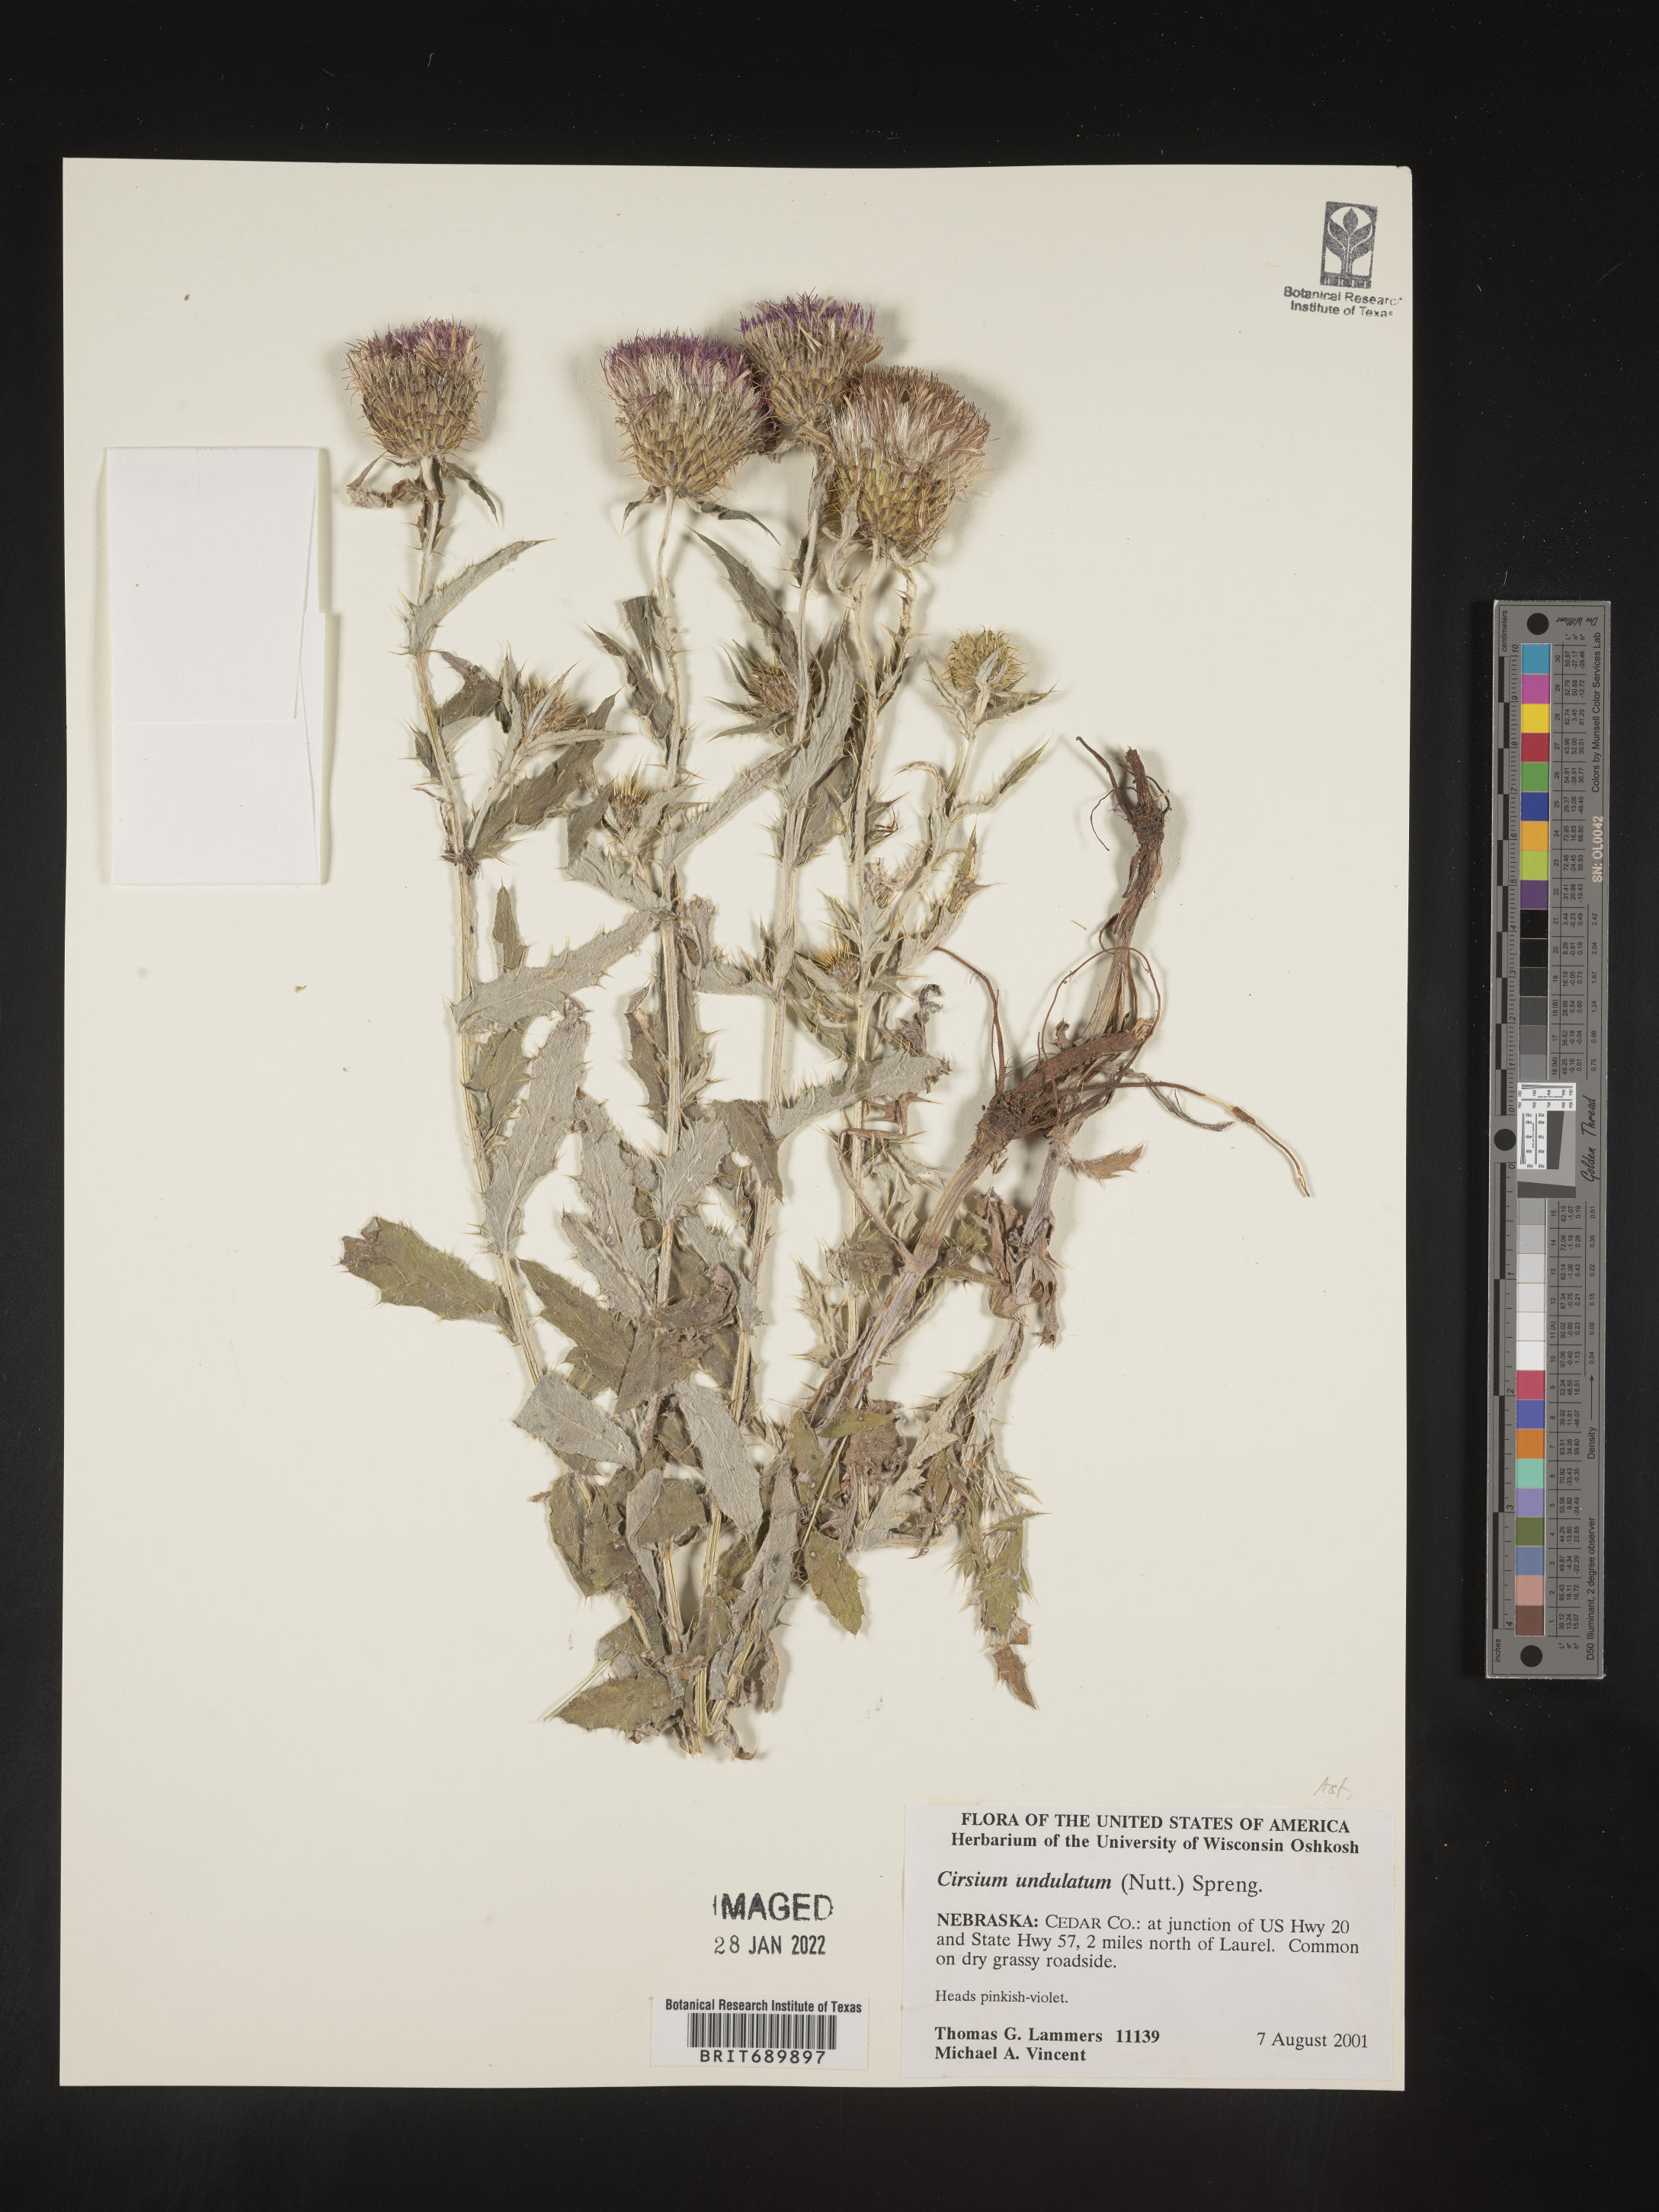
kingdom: Plantae
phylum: Tracheophyta
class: Magnoliopsida
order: Asterales
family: Asteraceae
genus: Cirsium
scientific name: Cirsium undulatum
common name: Pasture thistle
